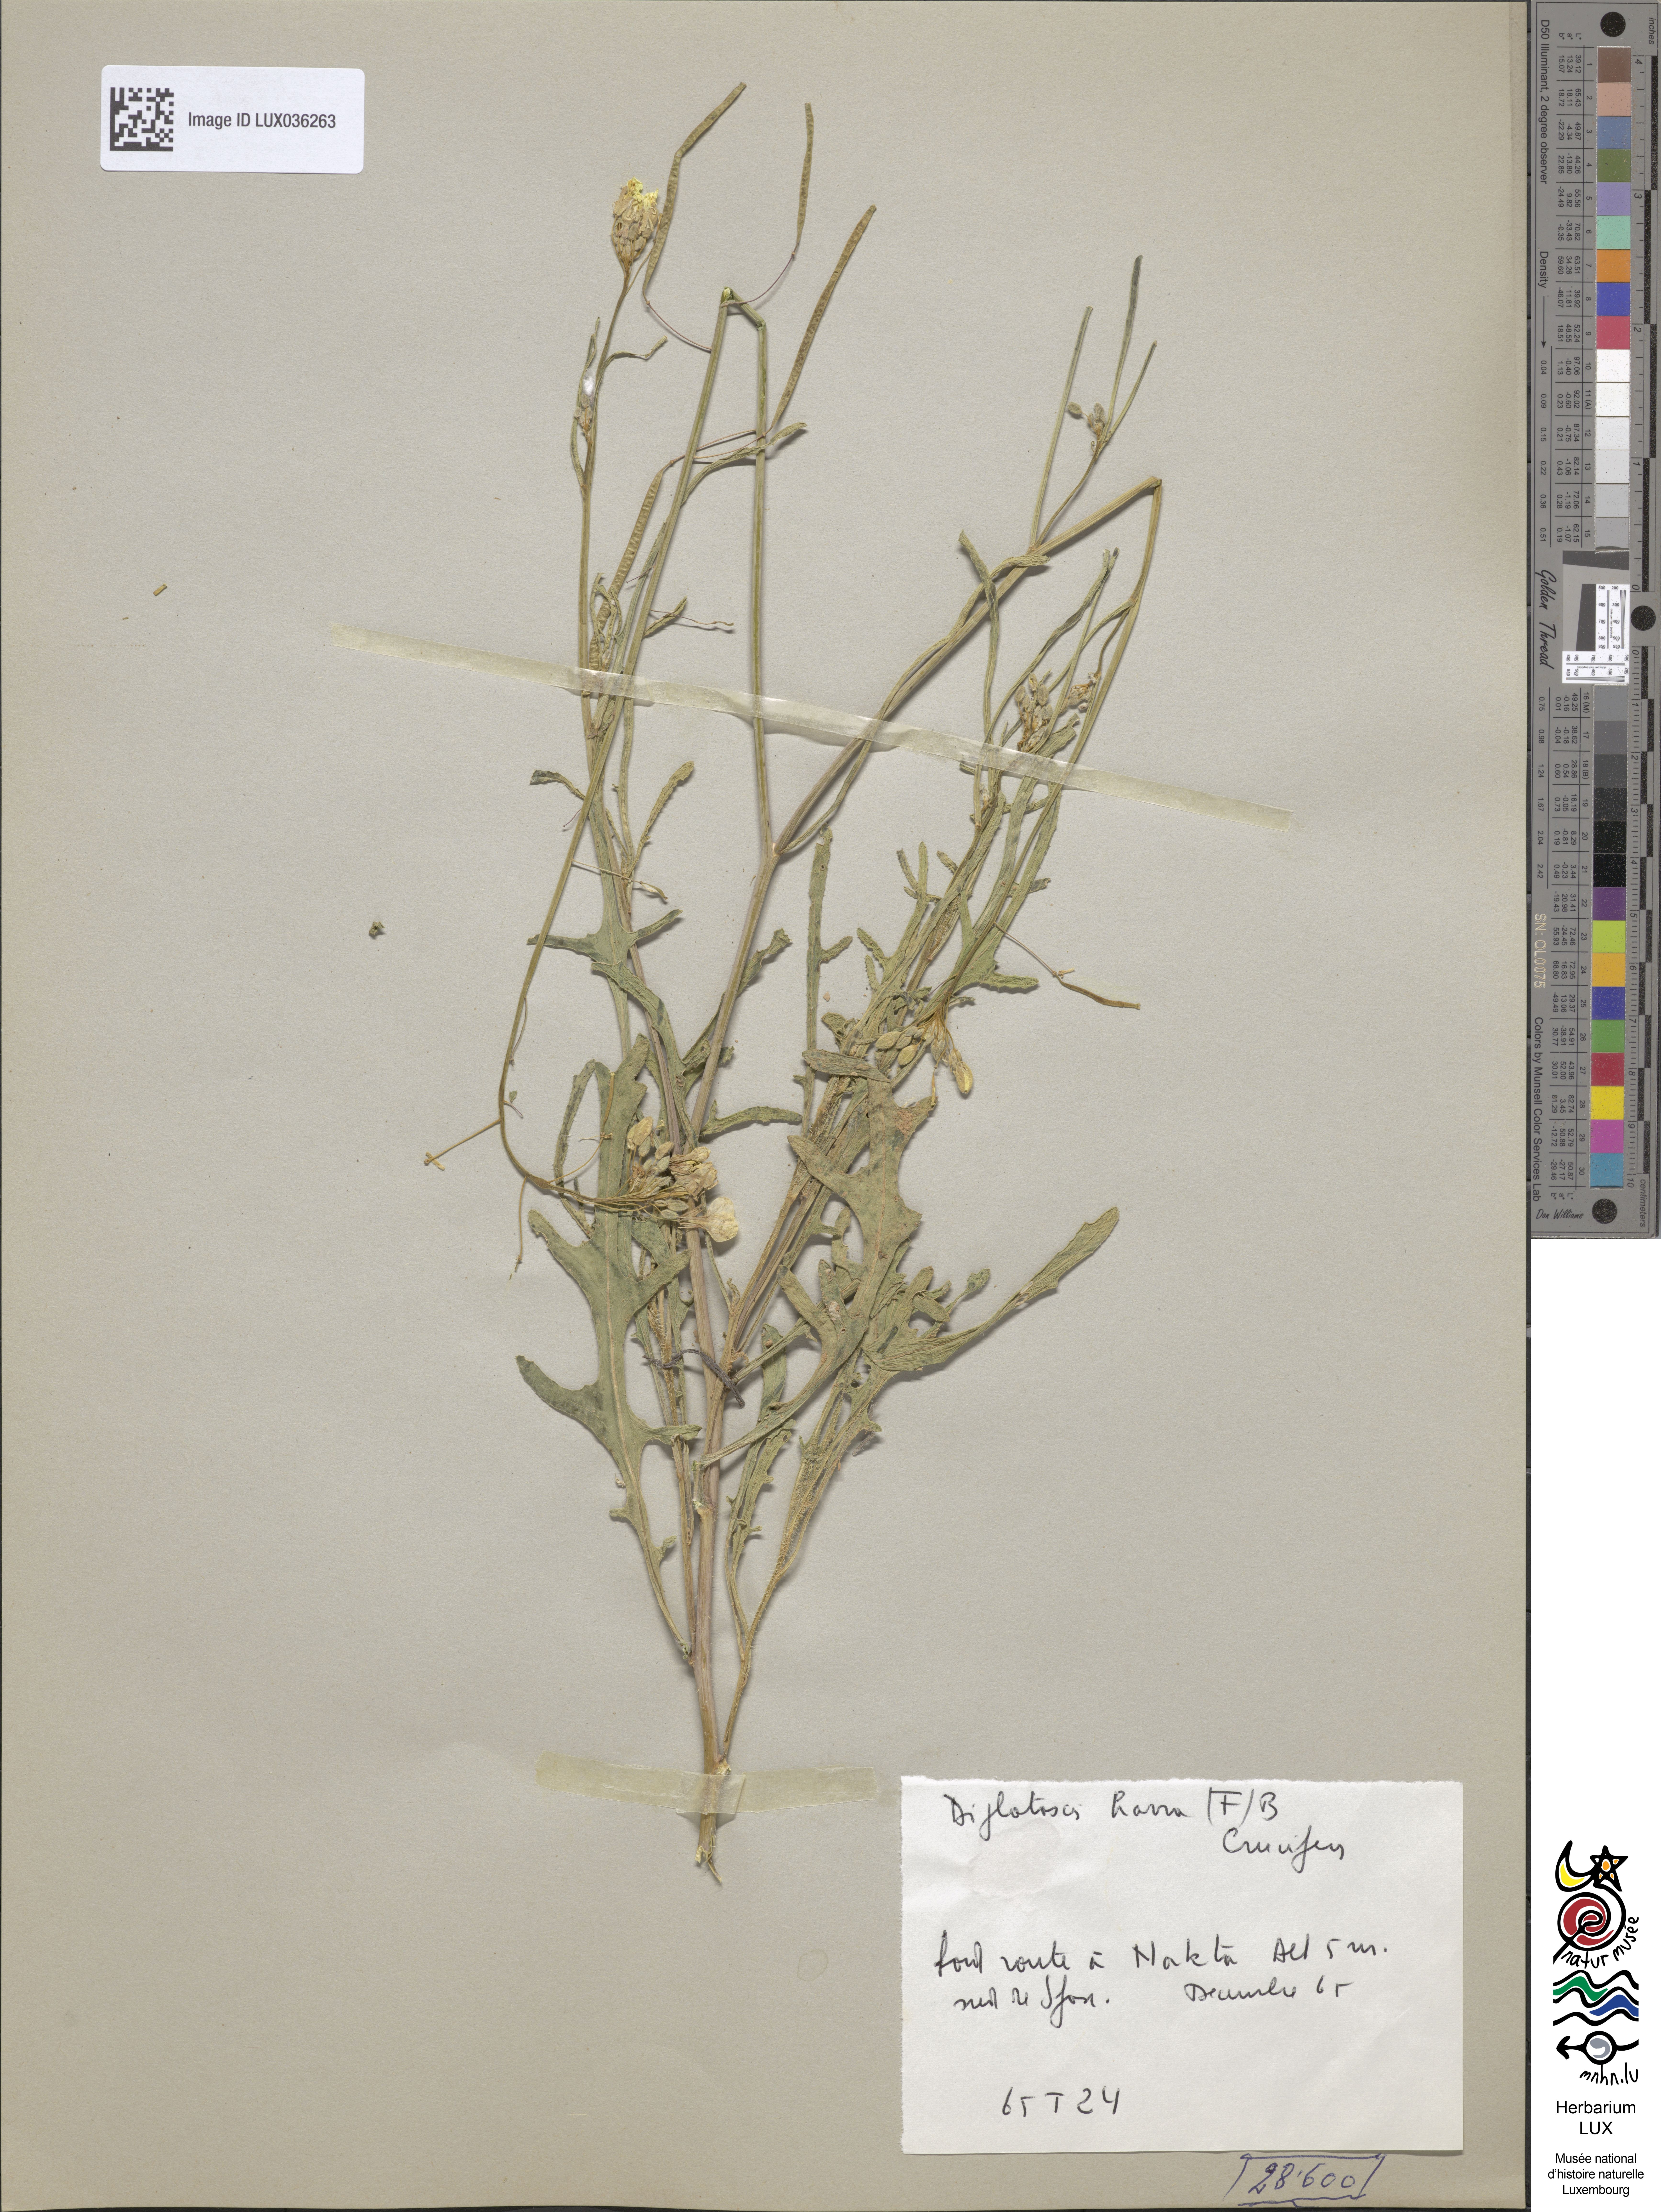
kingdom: Plantae
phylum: Tracheophyta
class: Magnoliopsida
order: Brassicales
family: Brassicaceae
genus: Diplotaxis
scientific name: Diplotaxis harra
